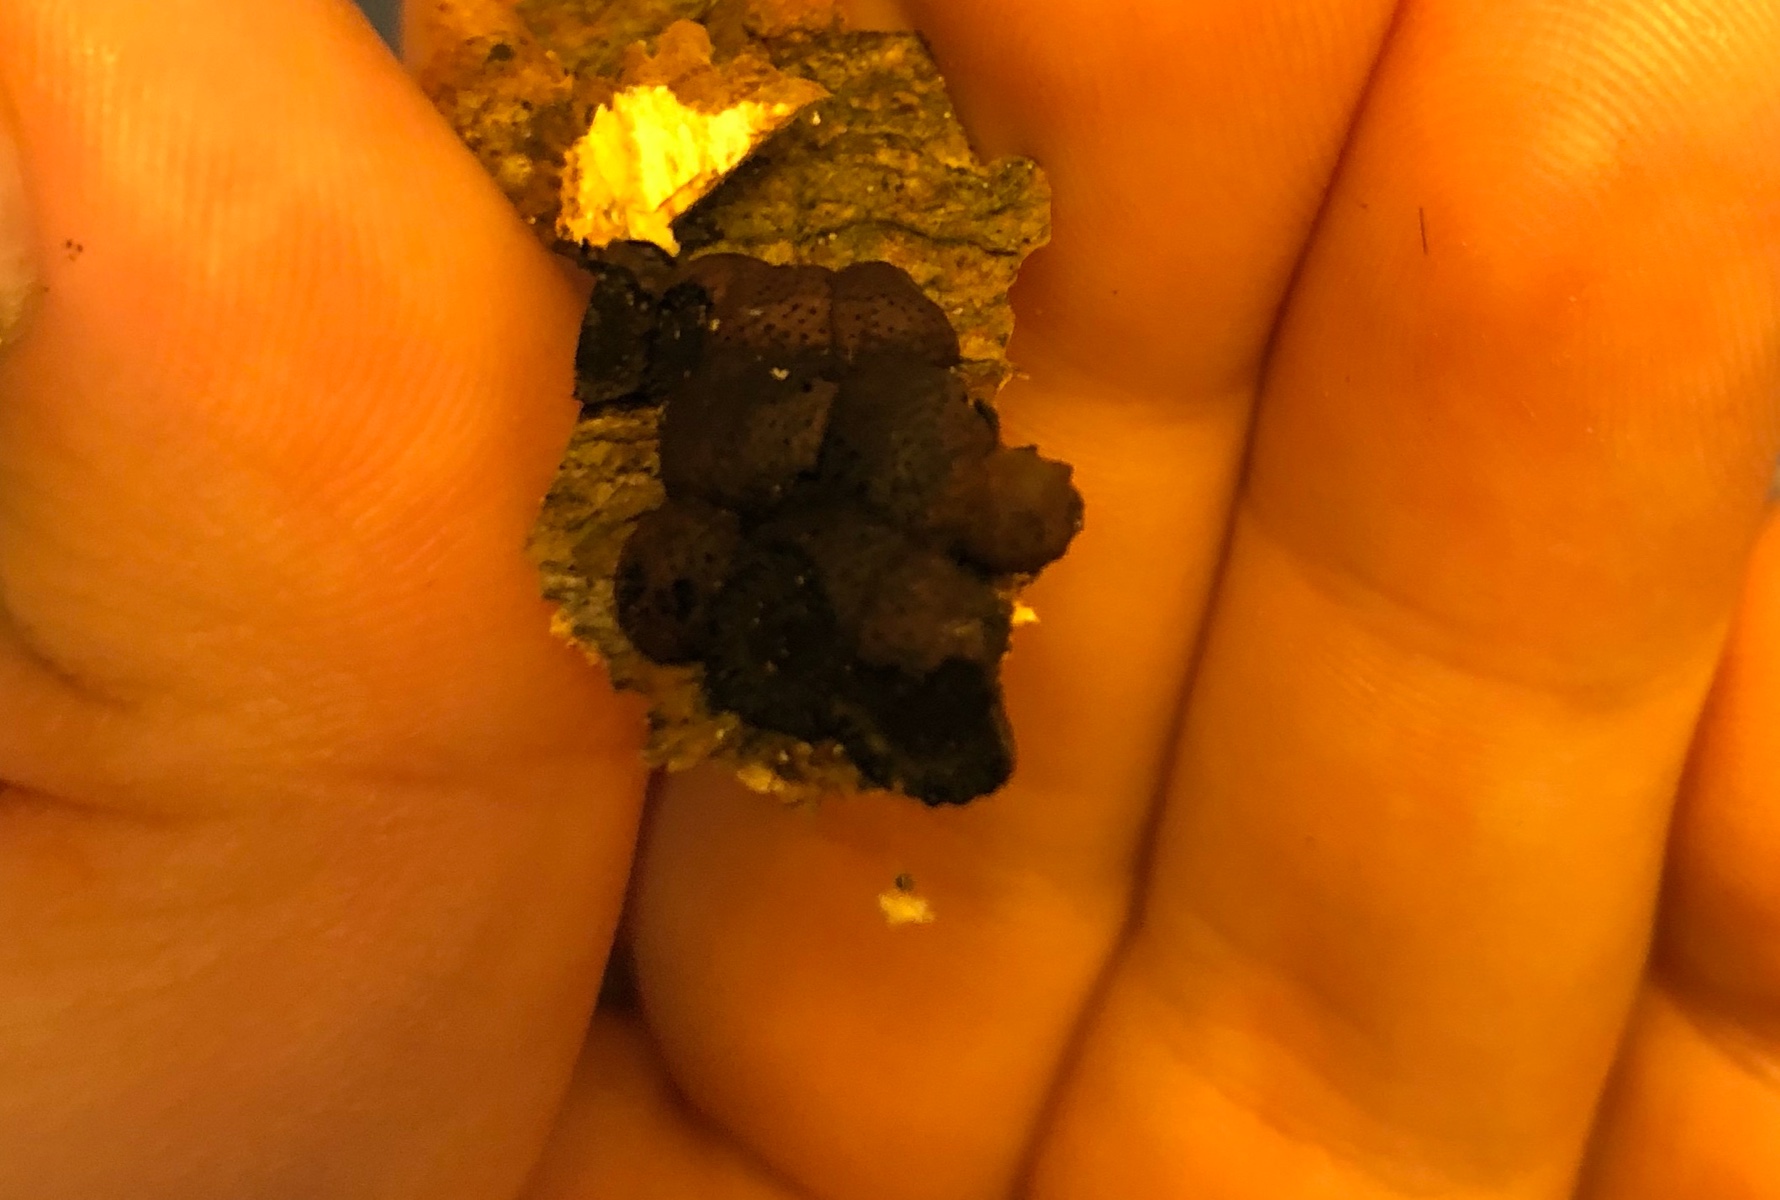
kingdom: Fungi
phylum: Ascomycota
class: Sordariomycetes
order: Xylariales
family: Hypoxylaceae
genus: Hypoxylon
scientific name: Hypoxylon fragiforme
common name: kuljordbær
